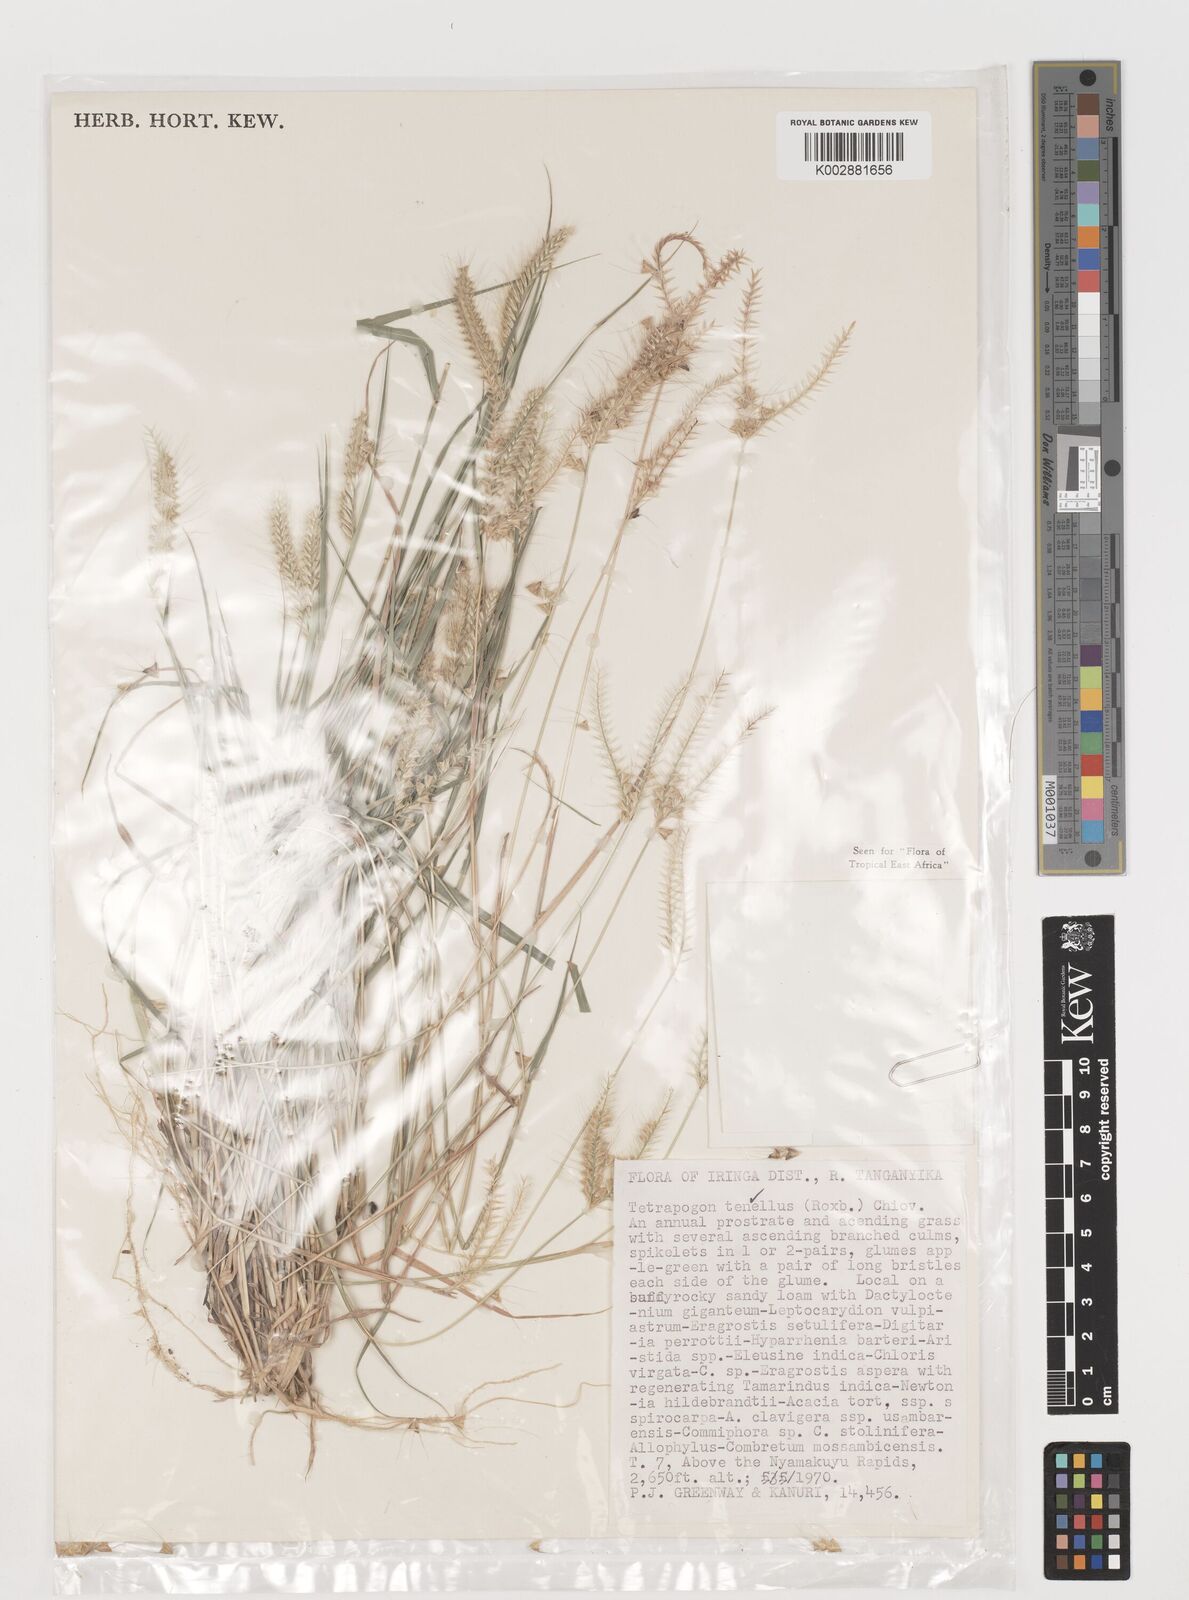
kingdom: Plantae
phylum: Tracheophyta
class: Liliopsida
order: Poales
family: Poaceae
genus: Tetrapogon
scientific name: Tetrapogon tenellus
